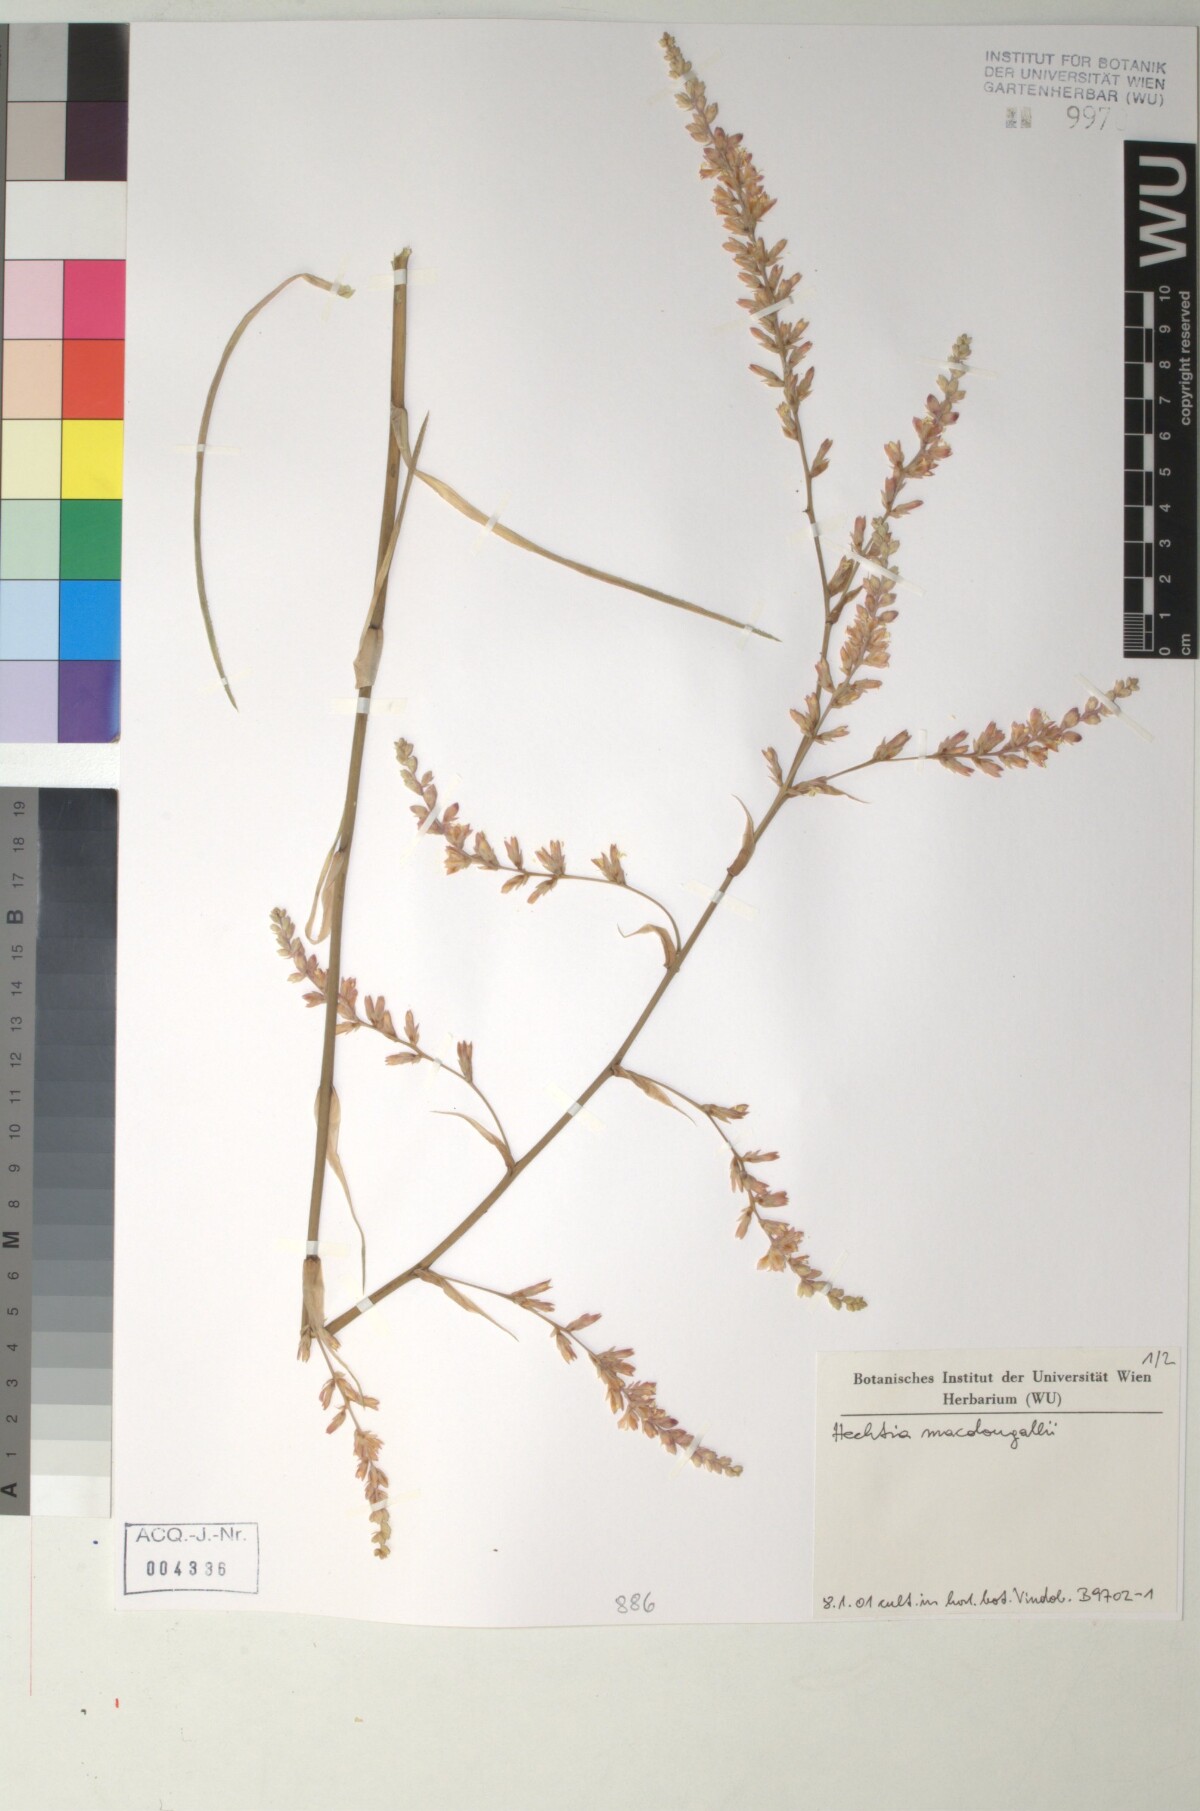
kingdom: Plantae
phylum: Tracheophyta
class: Liliopsida
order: Poales
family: Bromeliaceae
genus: Hechtia
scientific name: Hechtia
